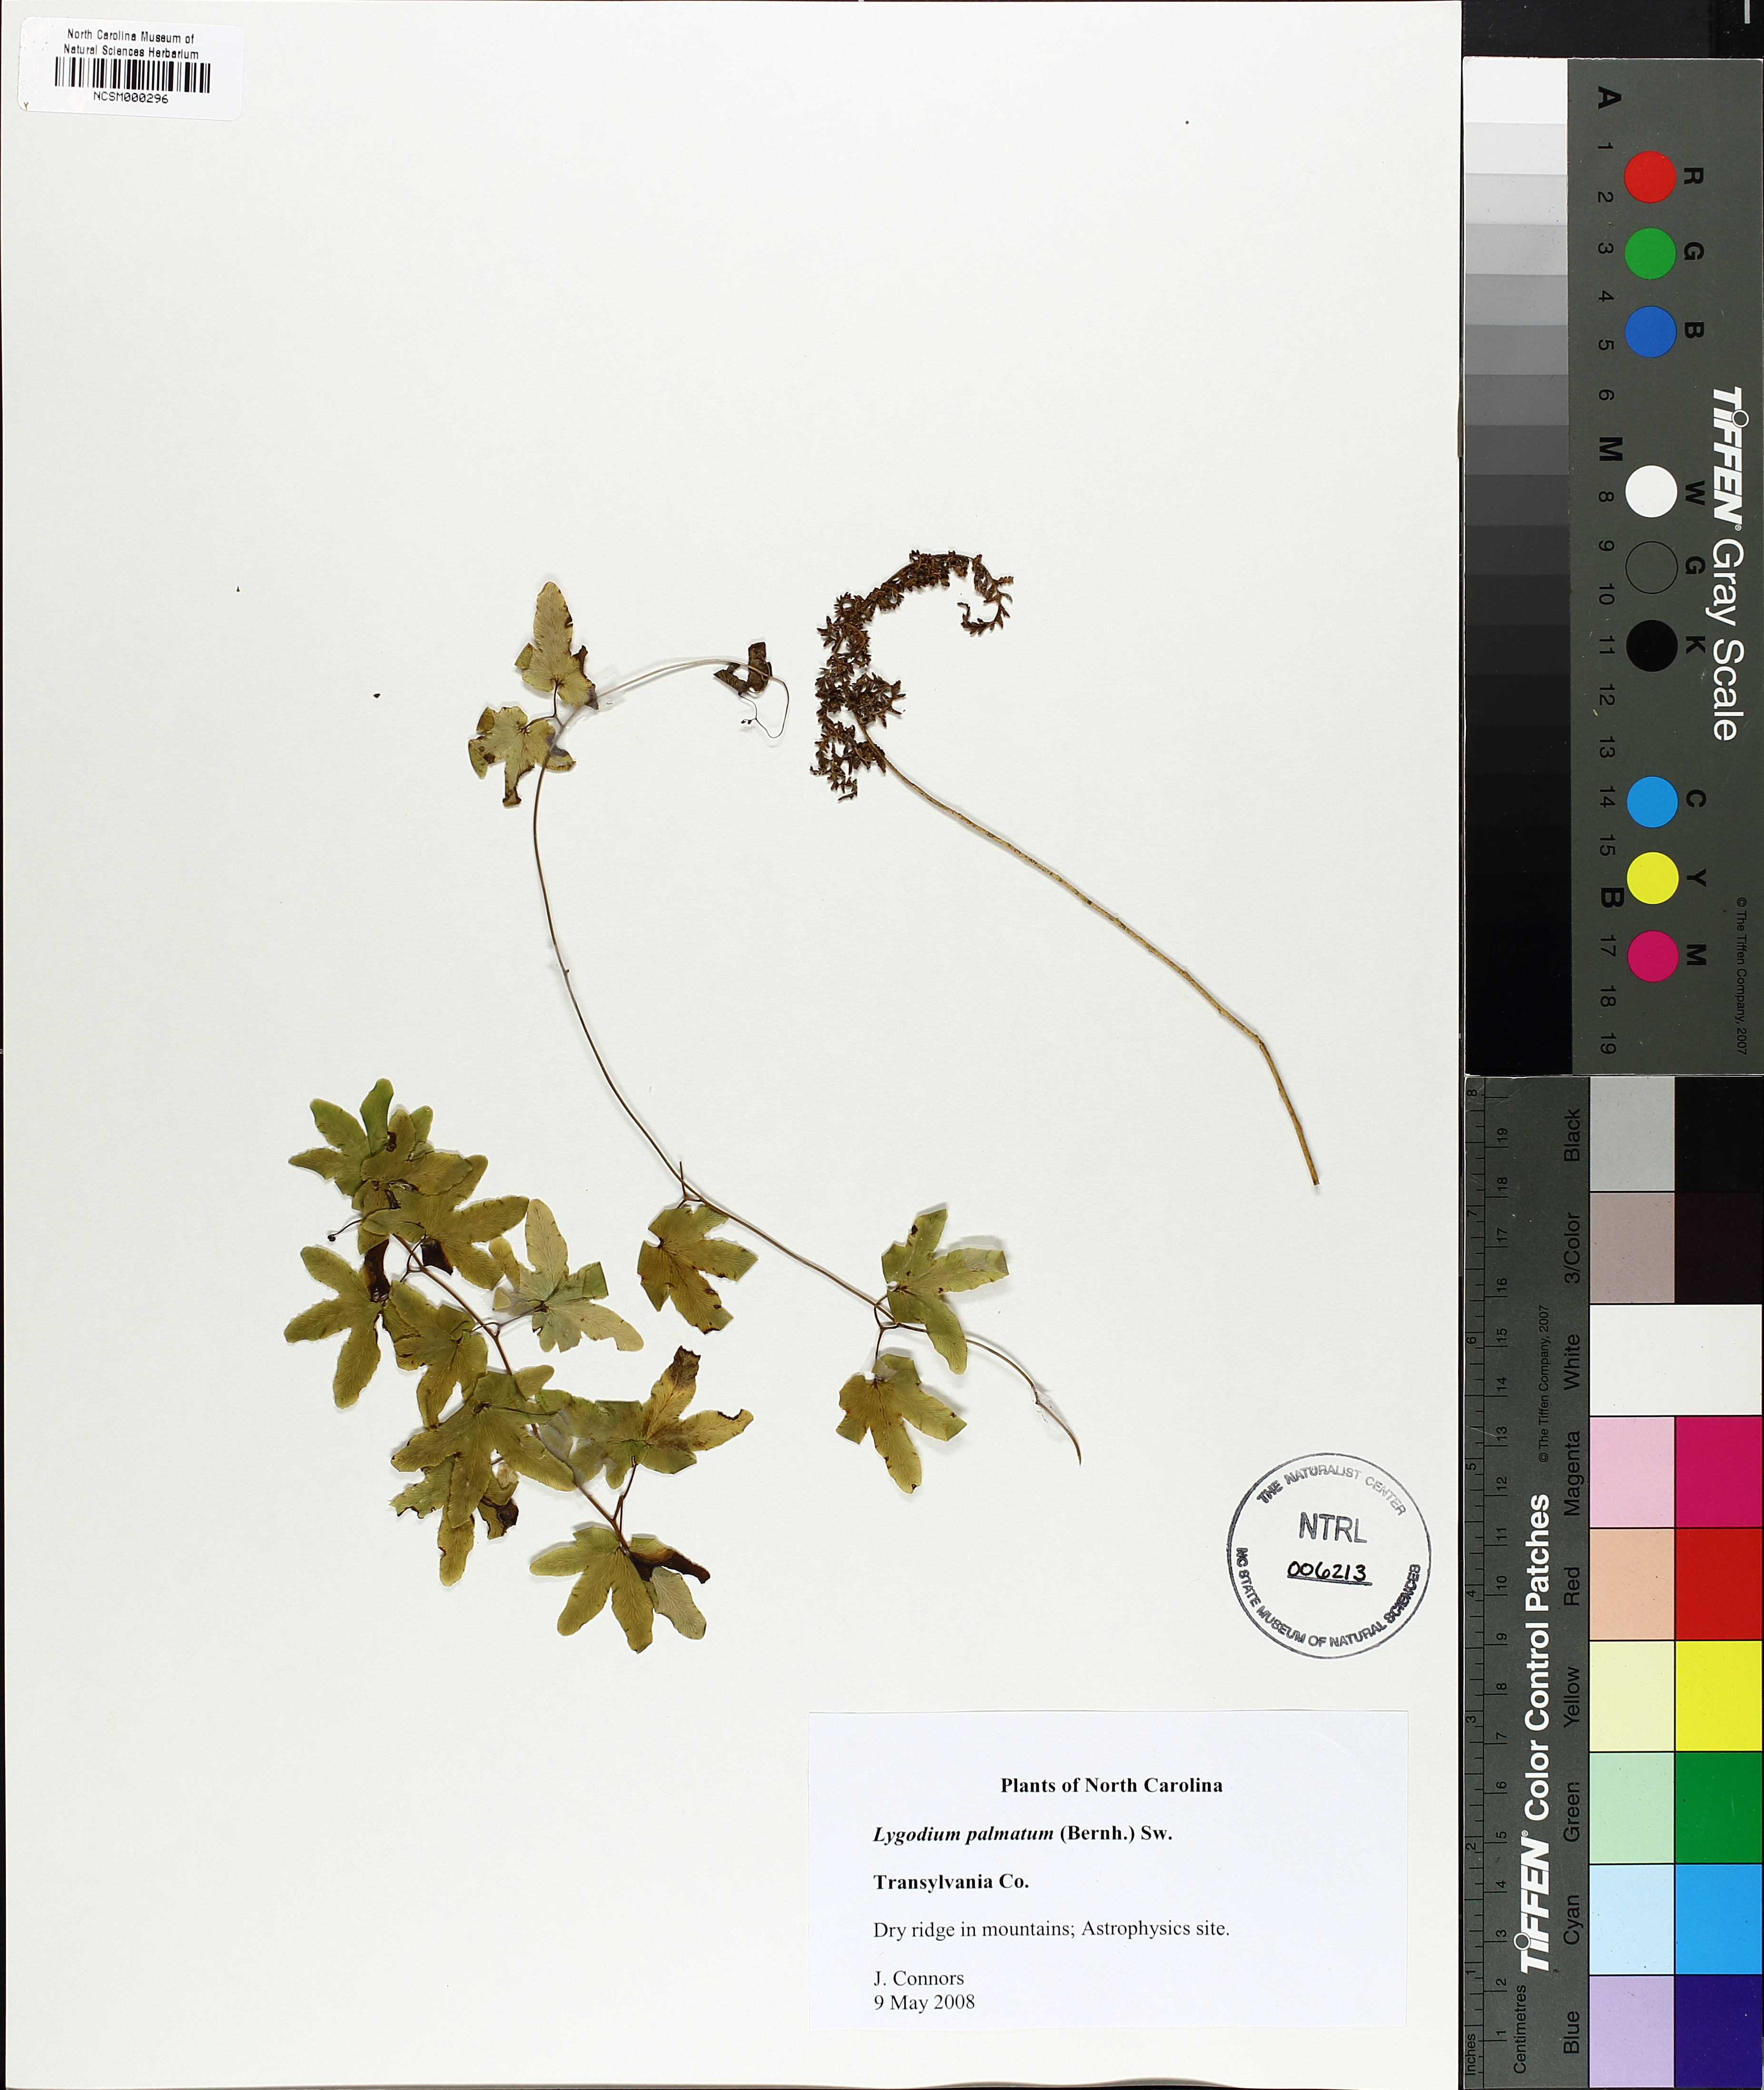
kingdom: Plantae
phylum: Tracheophyta
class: Polypodiopsida
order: Schizaeales
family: Lygodiaceae
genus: Lygodium
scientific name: Lygodium palmatum
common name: American climbing fern
